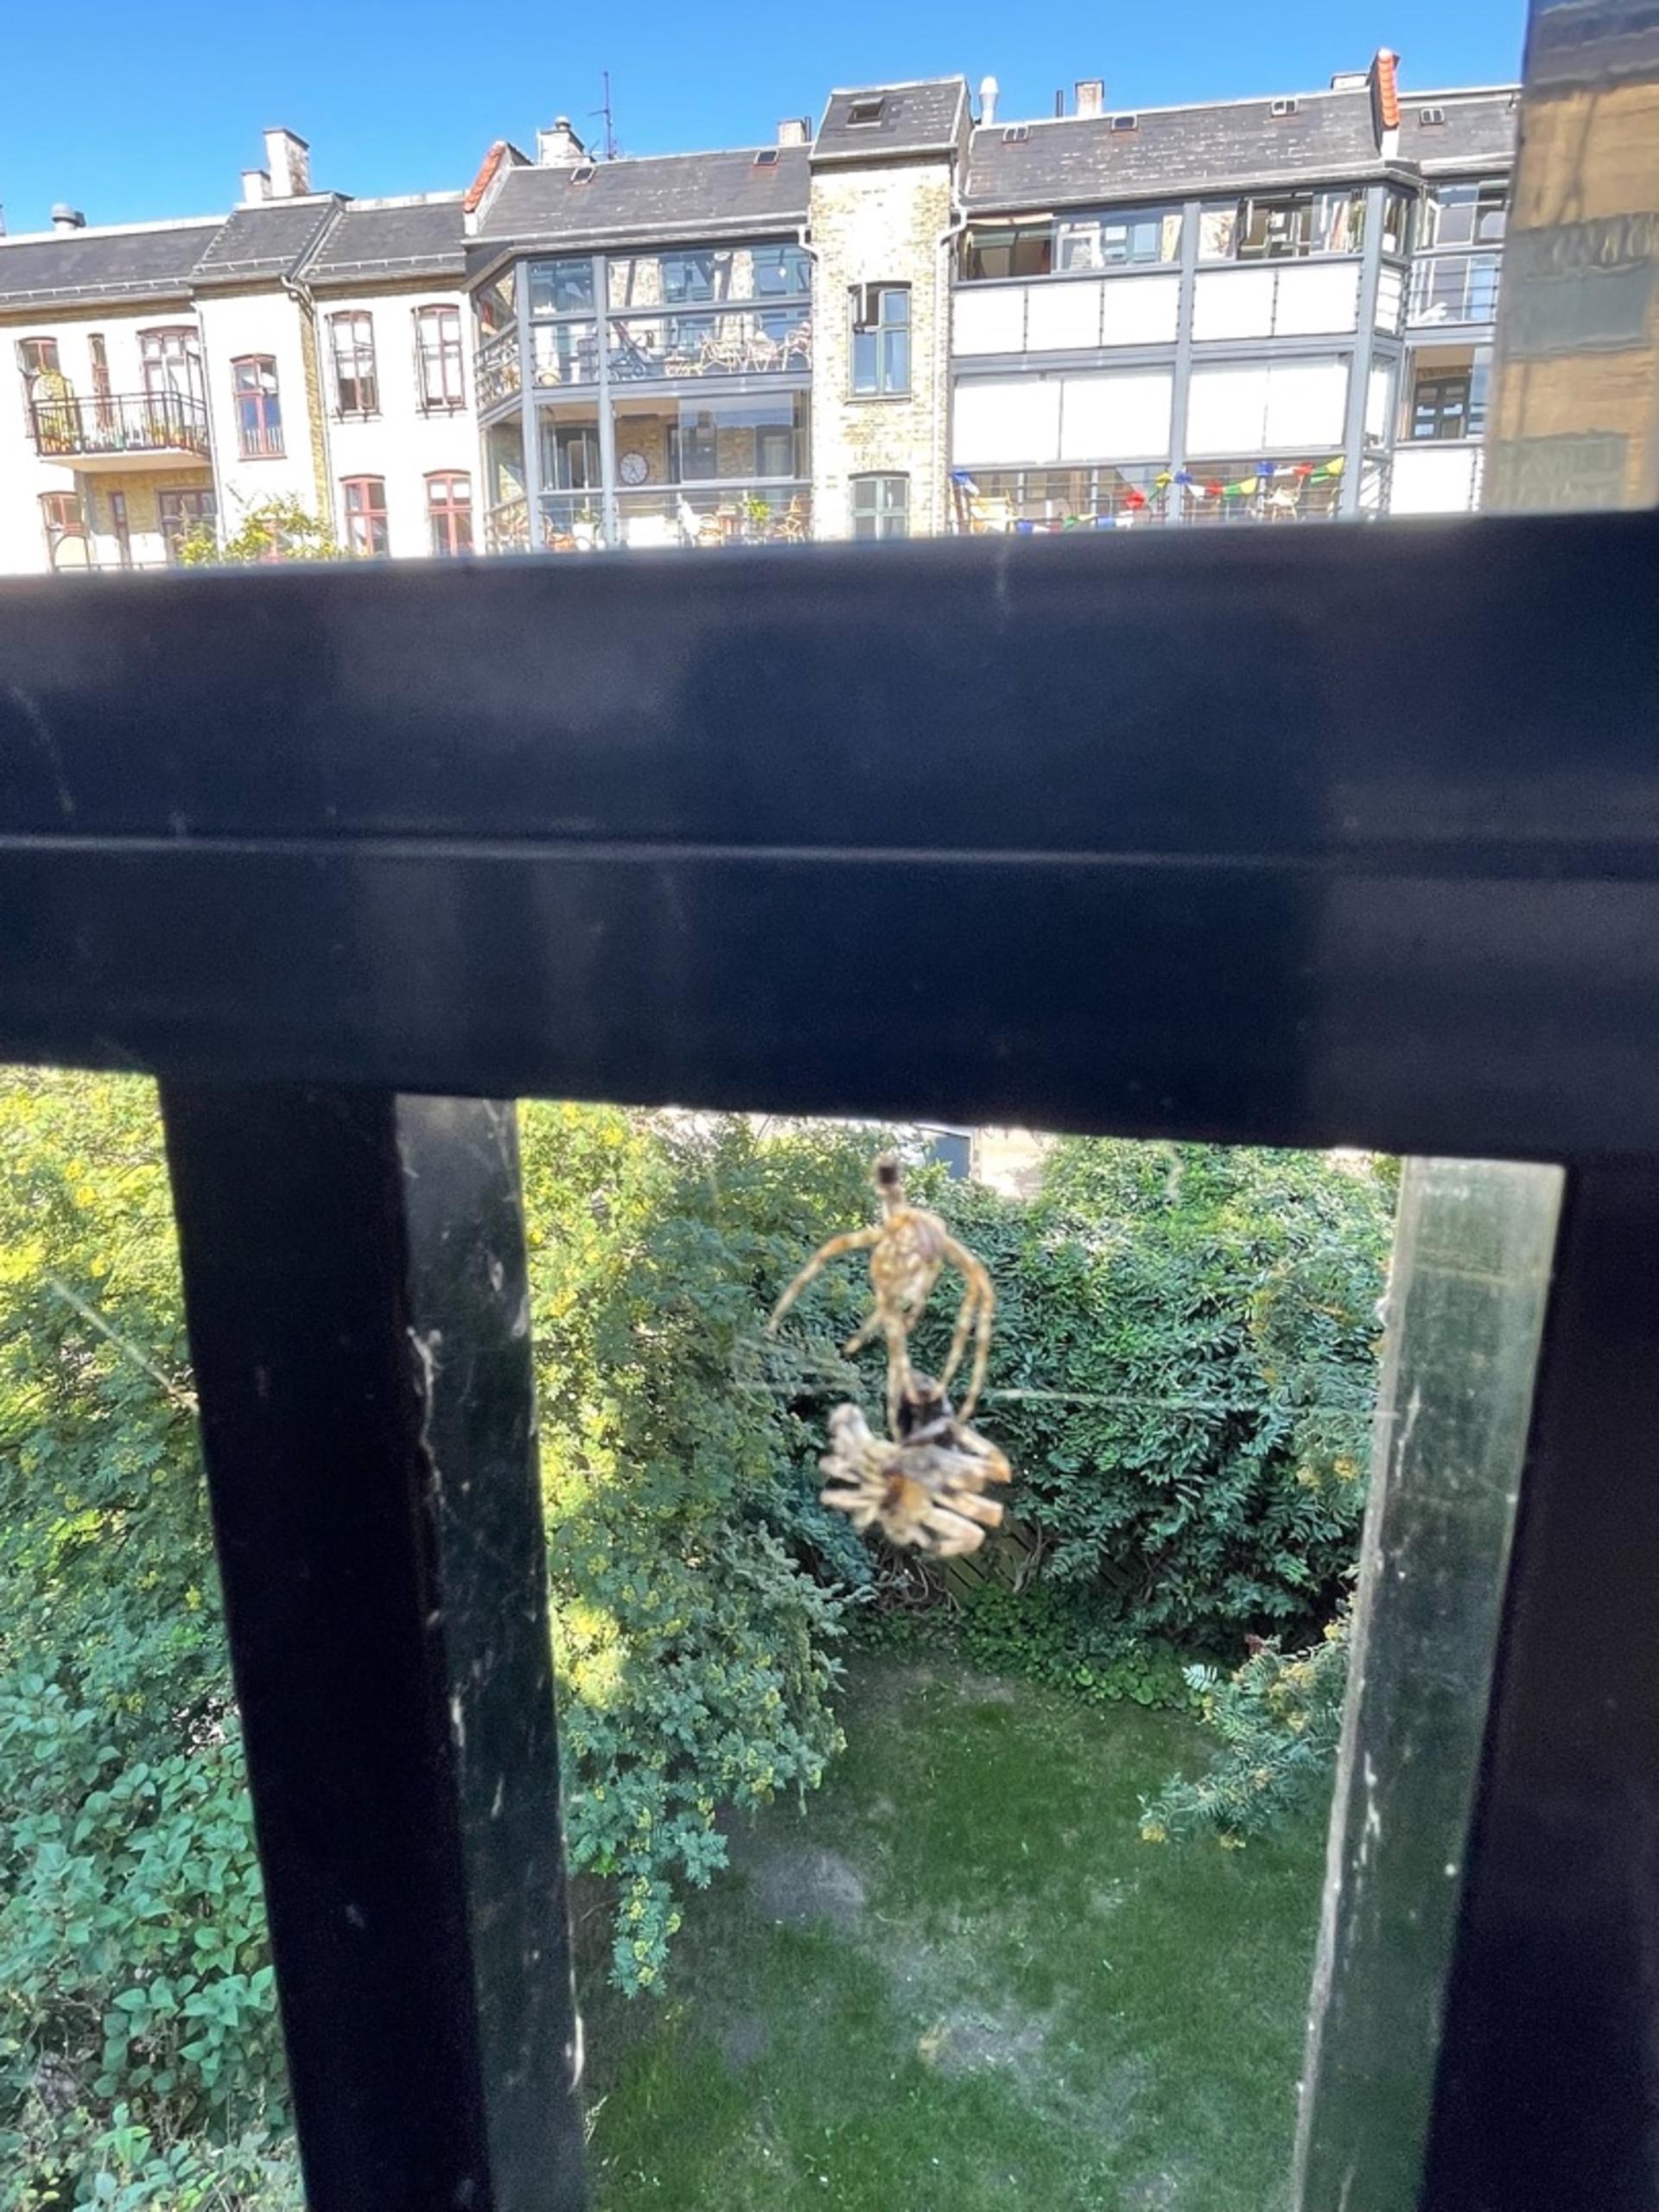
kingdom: Animalia
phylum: Arthropoda
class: Arachnida
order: Araneae
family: Araneidae
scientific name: Araneidae
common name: Hjulspindere
